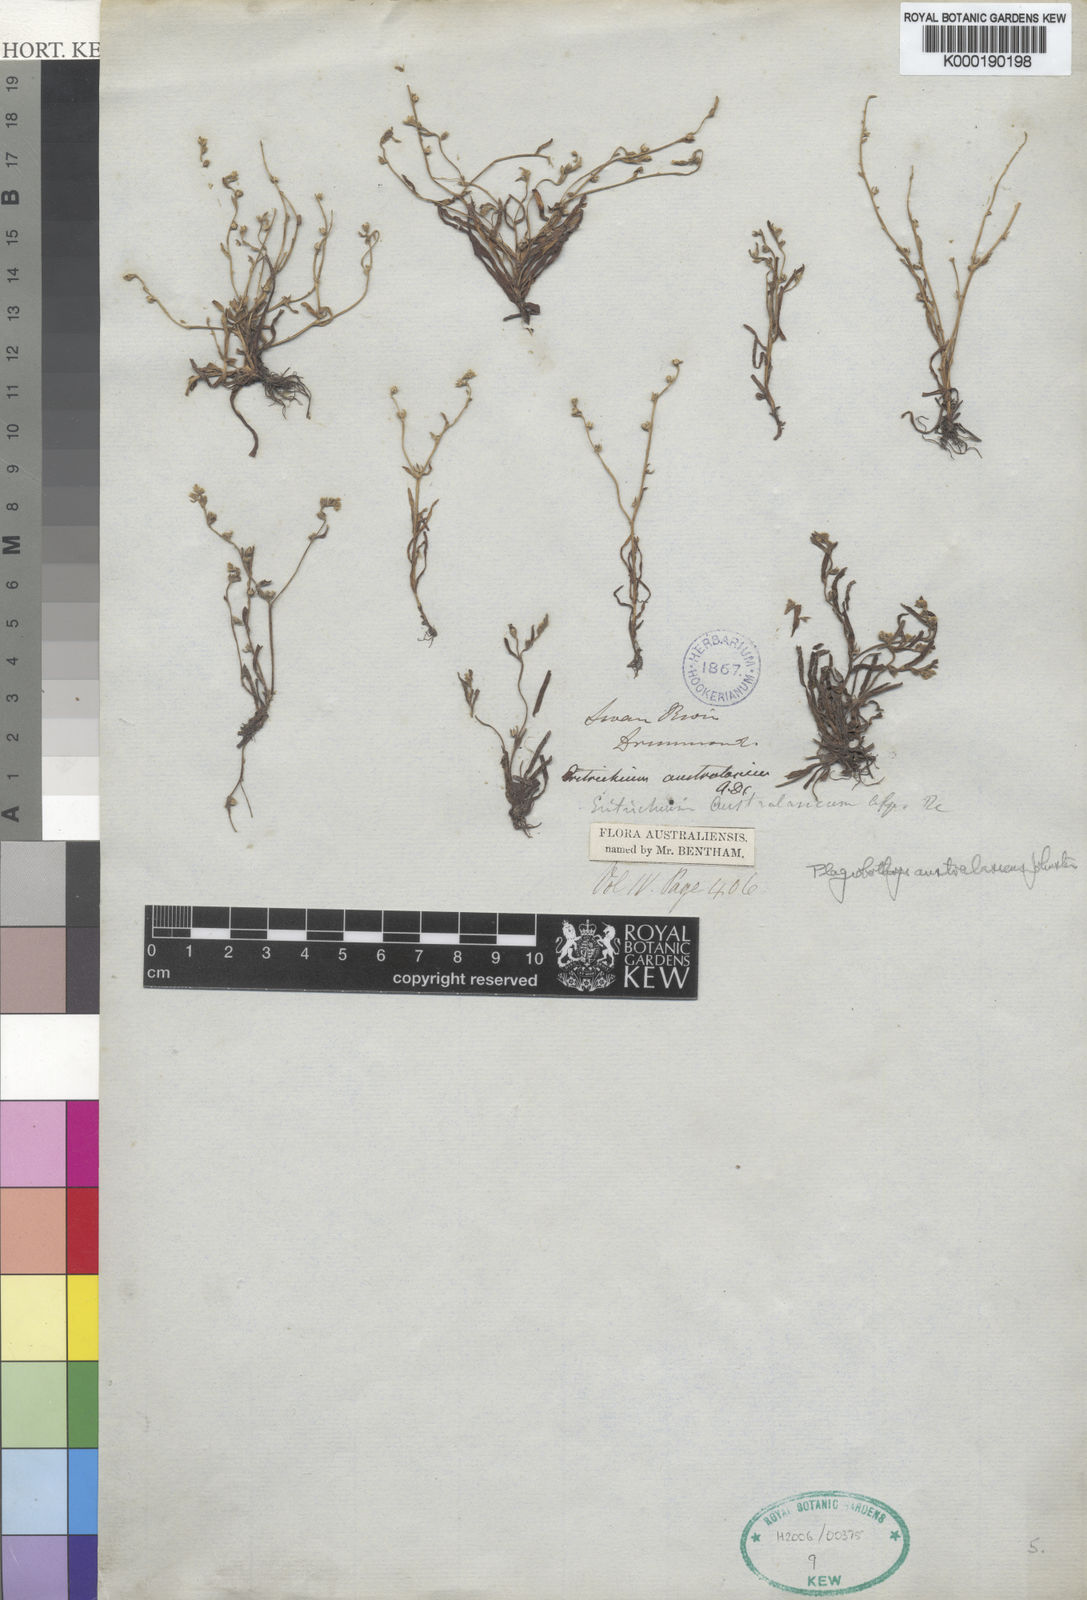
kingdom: Plantae
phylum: Tracheophyta
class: Magnoliopsida
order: Boraginales
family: Boraginaceae
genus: Plagiobothrys
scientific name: Plagiobothrys australasicus
